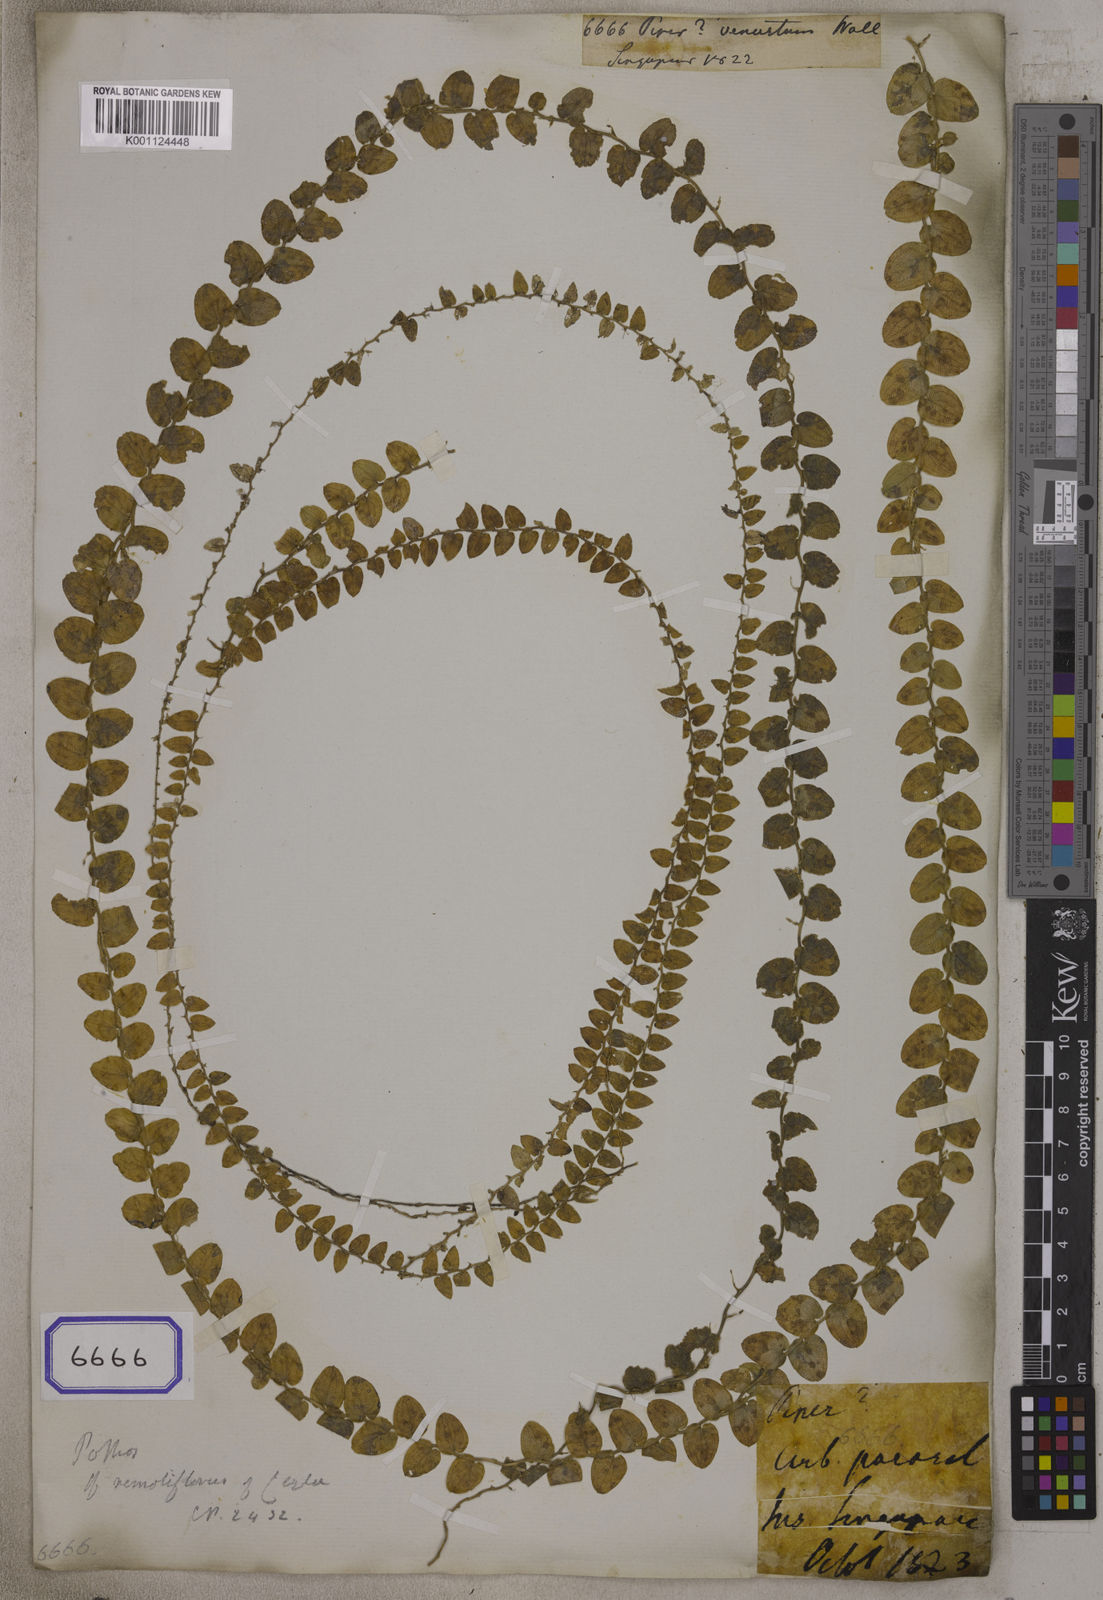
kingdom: Plantae
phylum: Tracheophyta
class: Liliopsida
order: Alismatales
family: Araceae
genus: Pothos
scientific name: Pothos scandens
